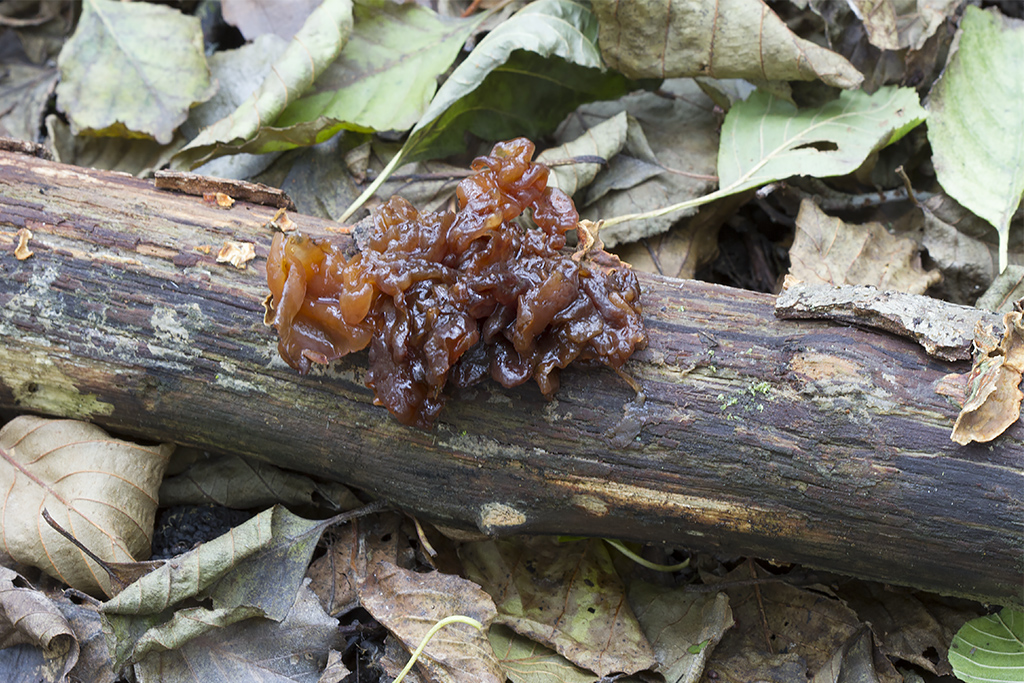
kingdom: Fungi
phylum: Basidiomycota
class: Tremellomycetes
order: Tremellales
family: Tremellaceae
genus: Phaeotremella
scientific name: Phaeotremella frondosa
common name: kæmpe-bævresvamp
